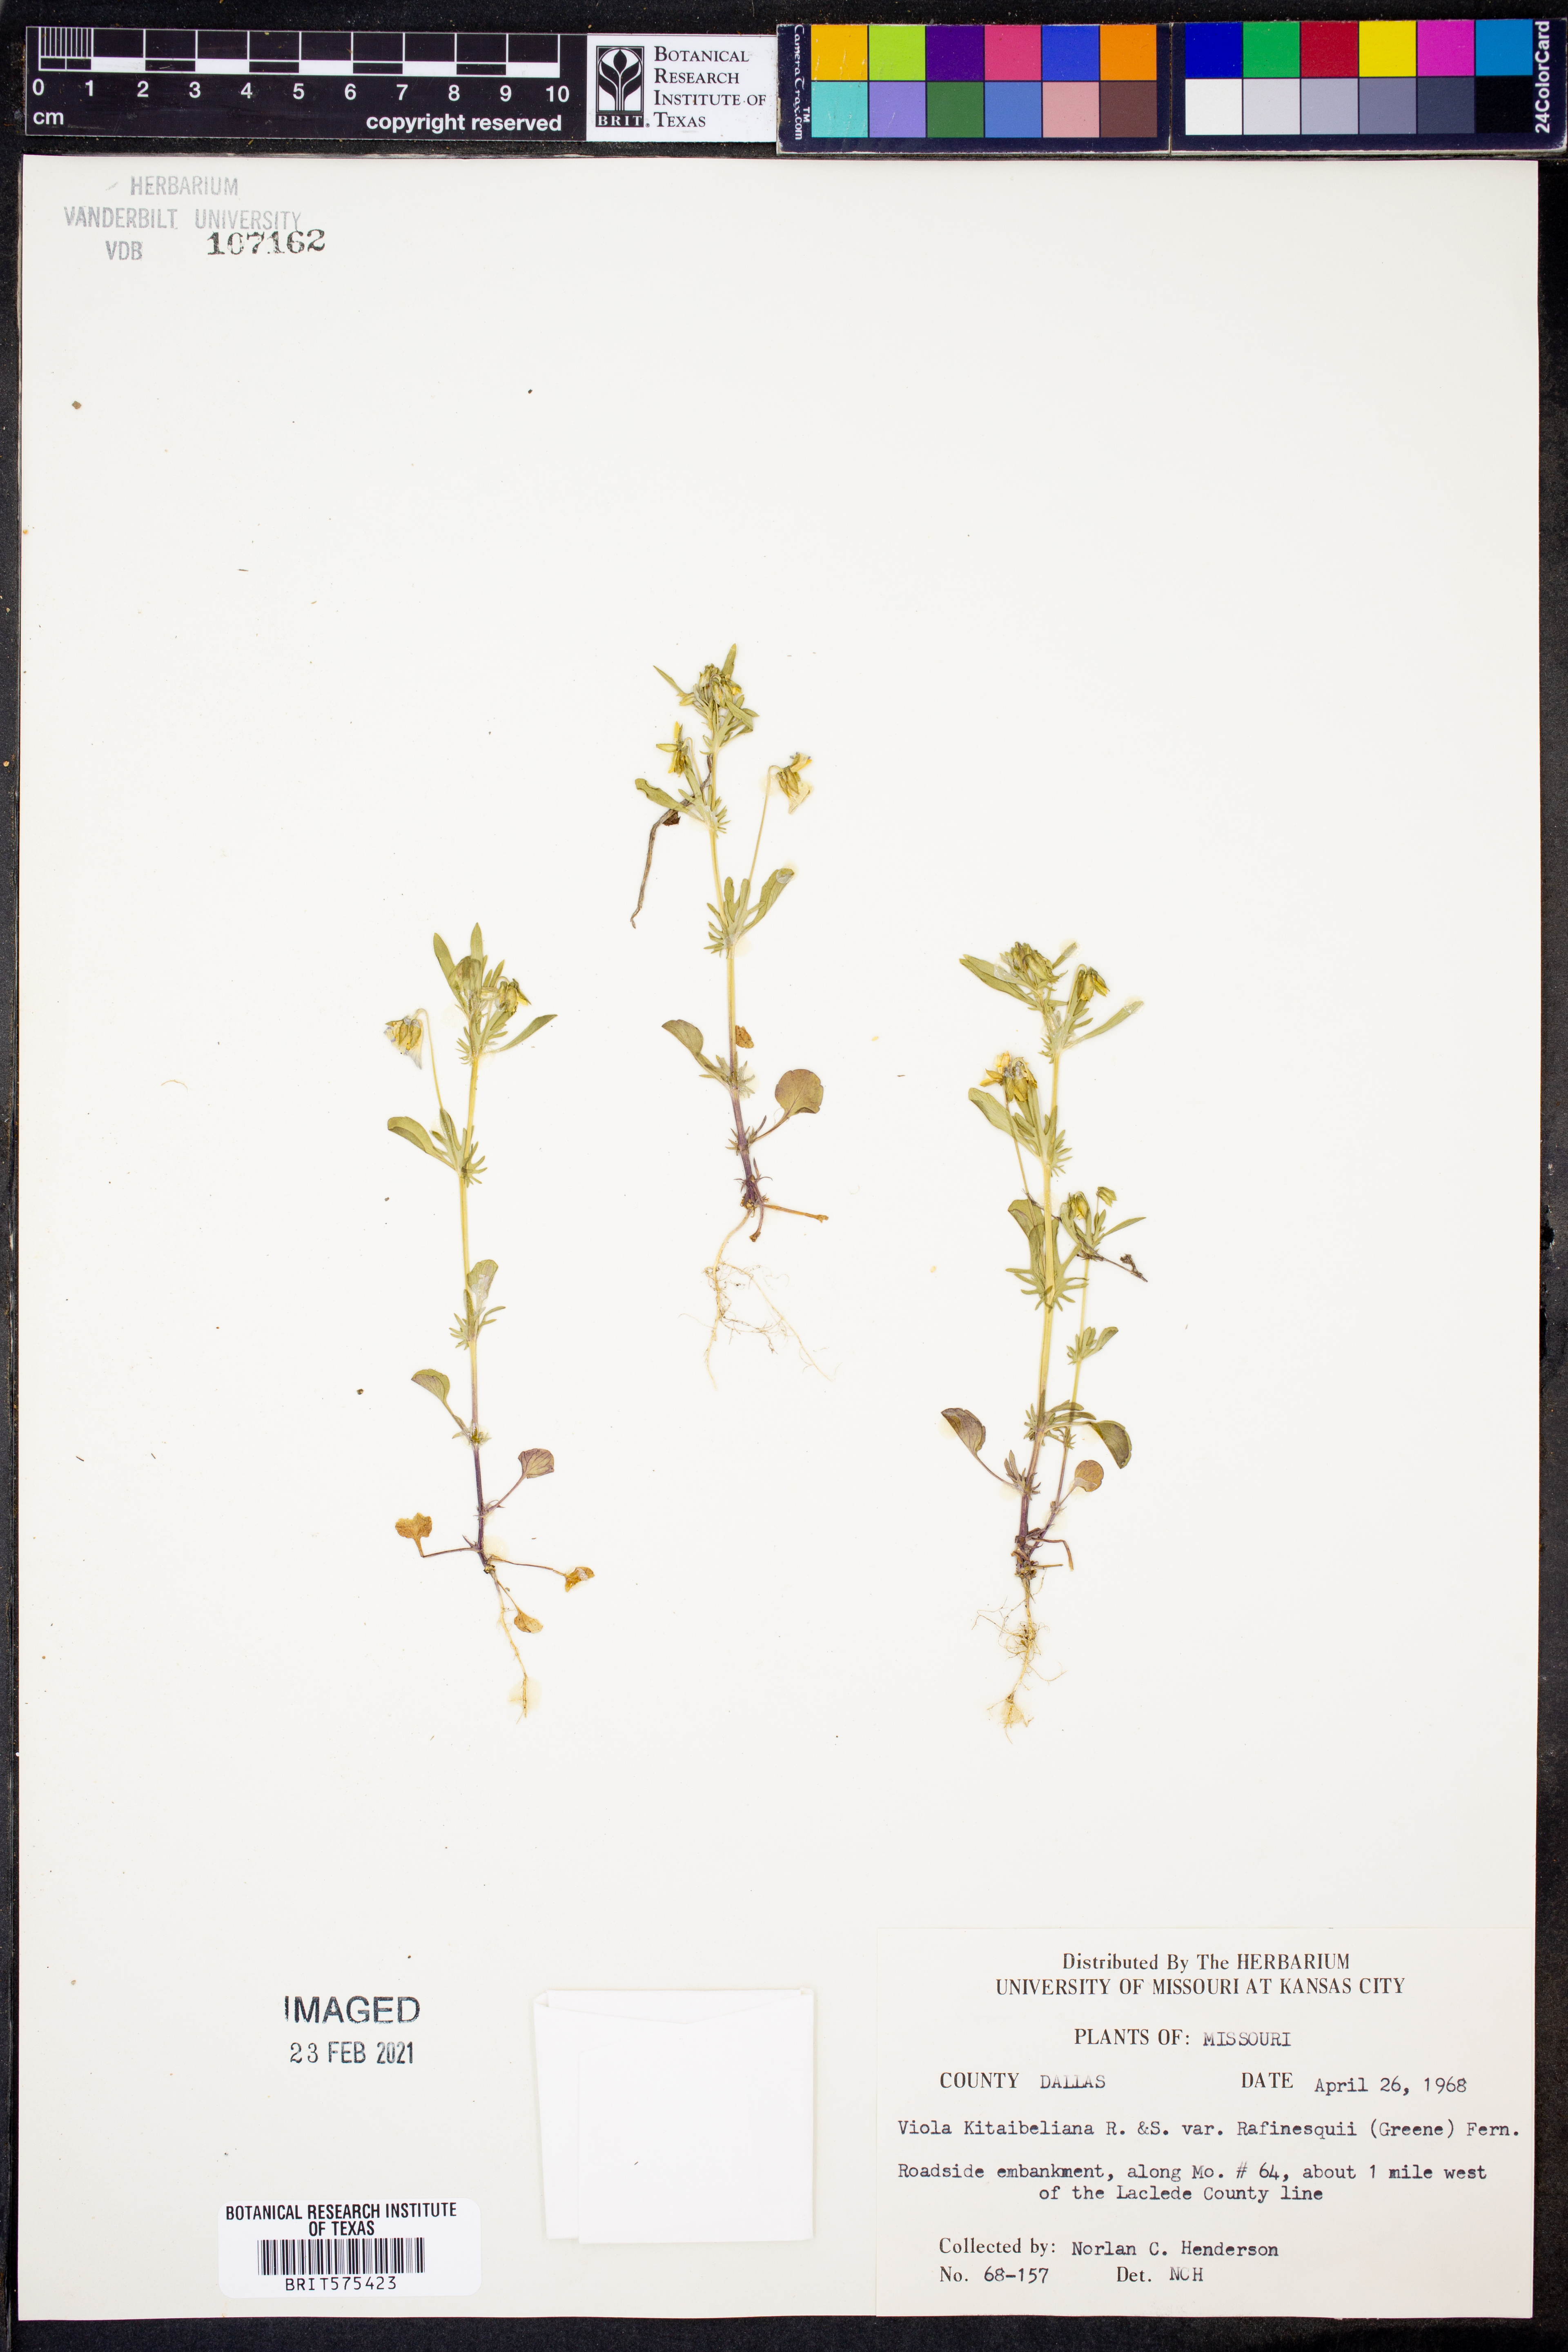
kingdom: Plantae
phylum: Tracheophyta
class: Magnoliopsida
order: Malpighiales
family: Violaceae
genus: Viola
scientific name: Viola rafinesquei
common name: American field pansy
